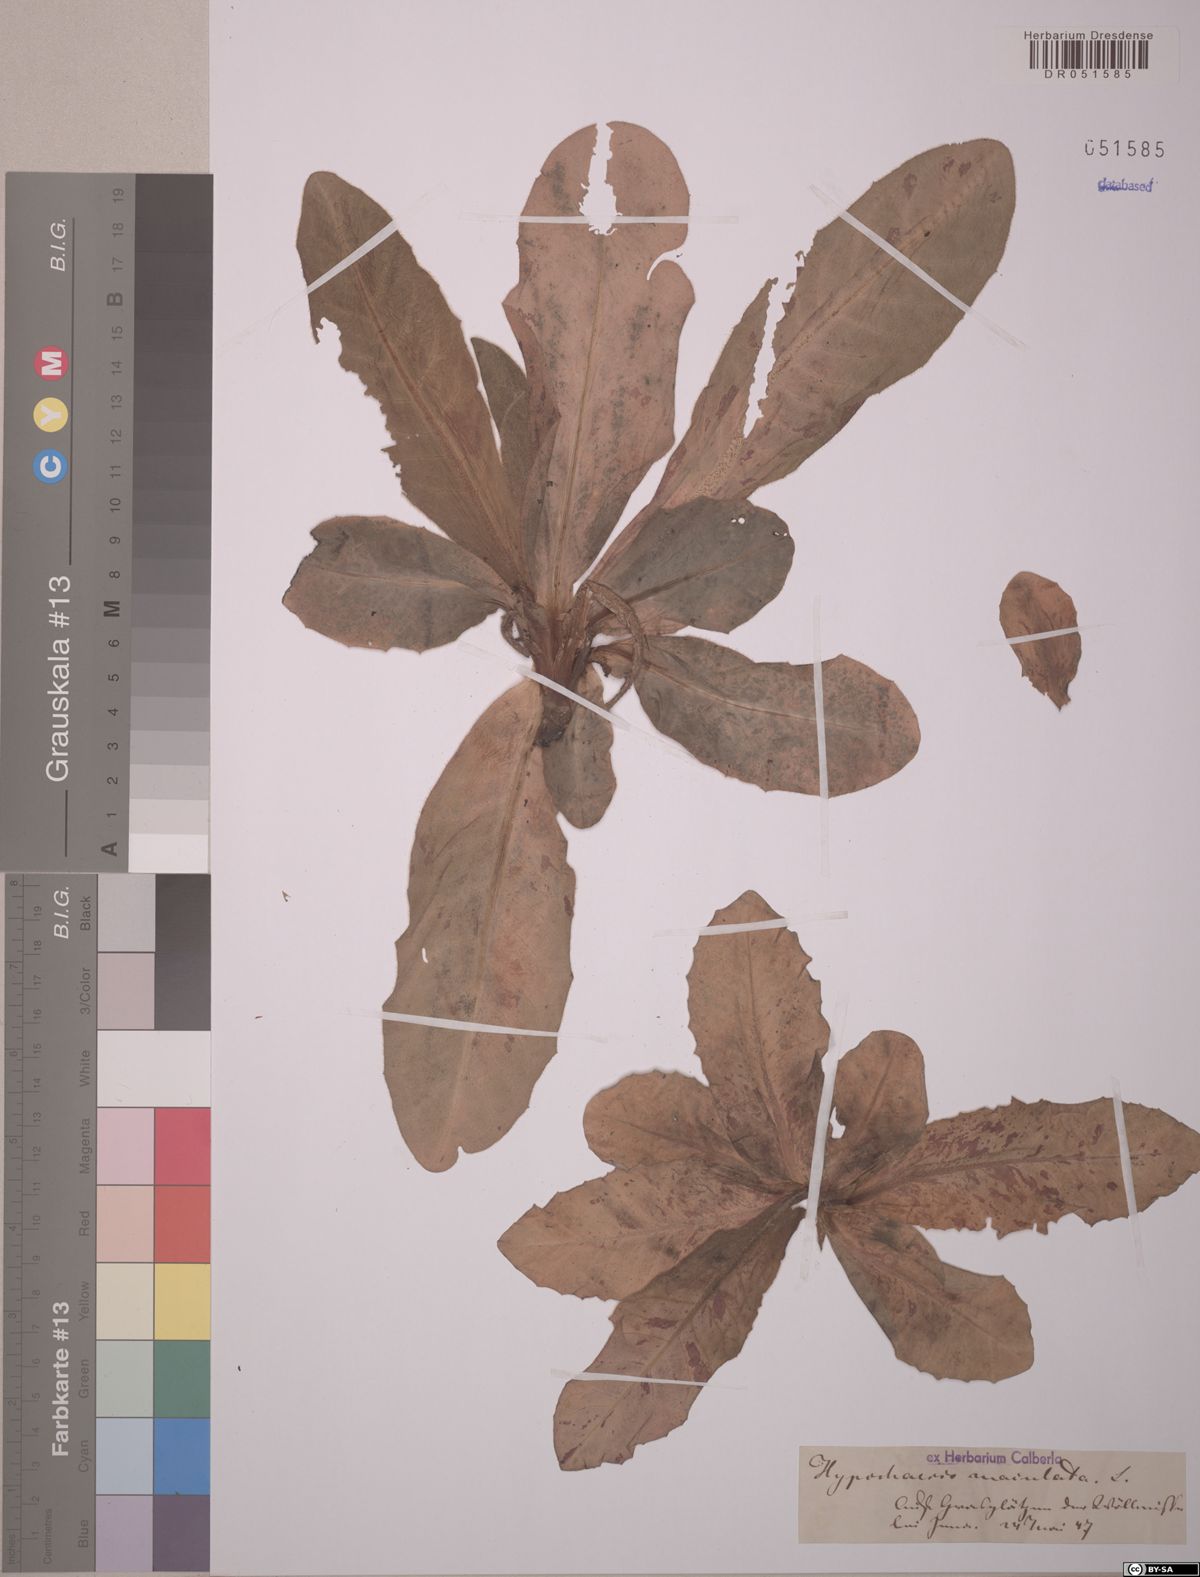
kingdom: Plantae
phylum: Tracheophyta
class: Magnoliopsida
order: Asterales
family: Asteraceae
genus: Trommsdorffia
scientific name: Trommsdorffia maculata
